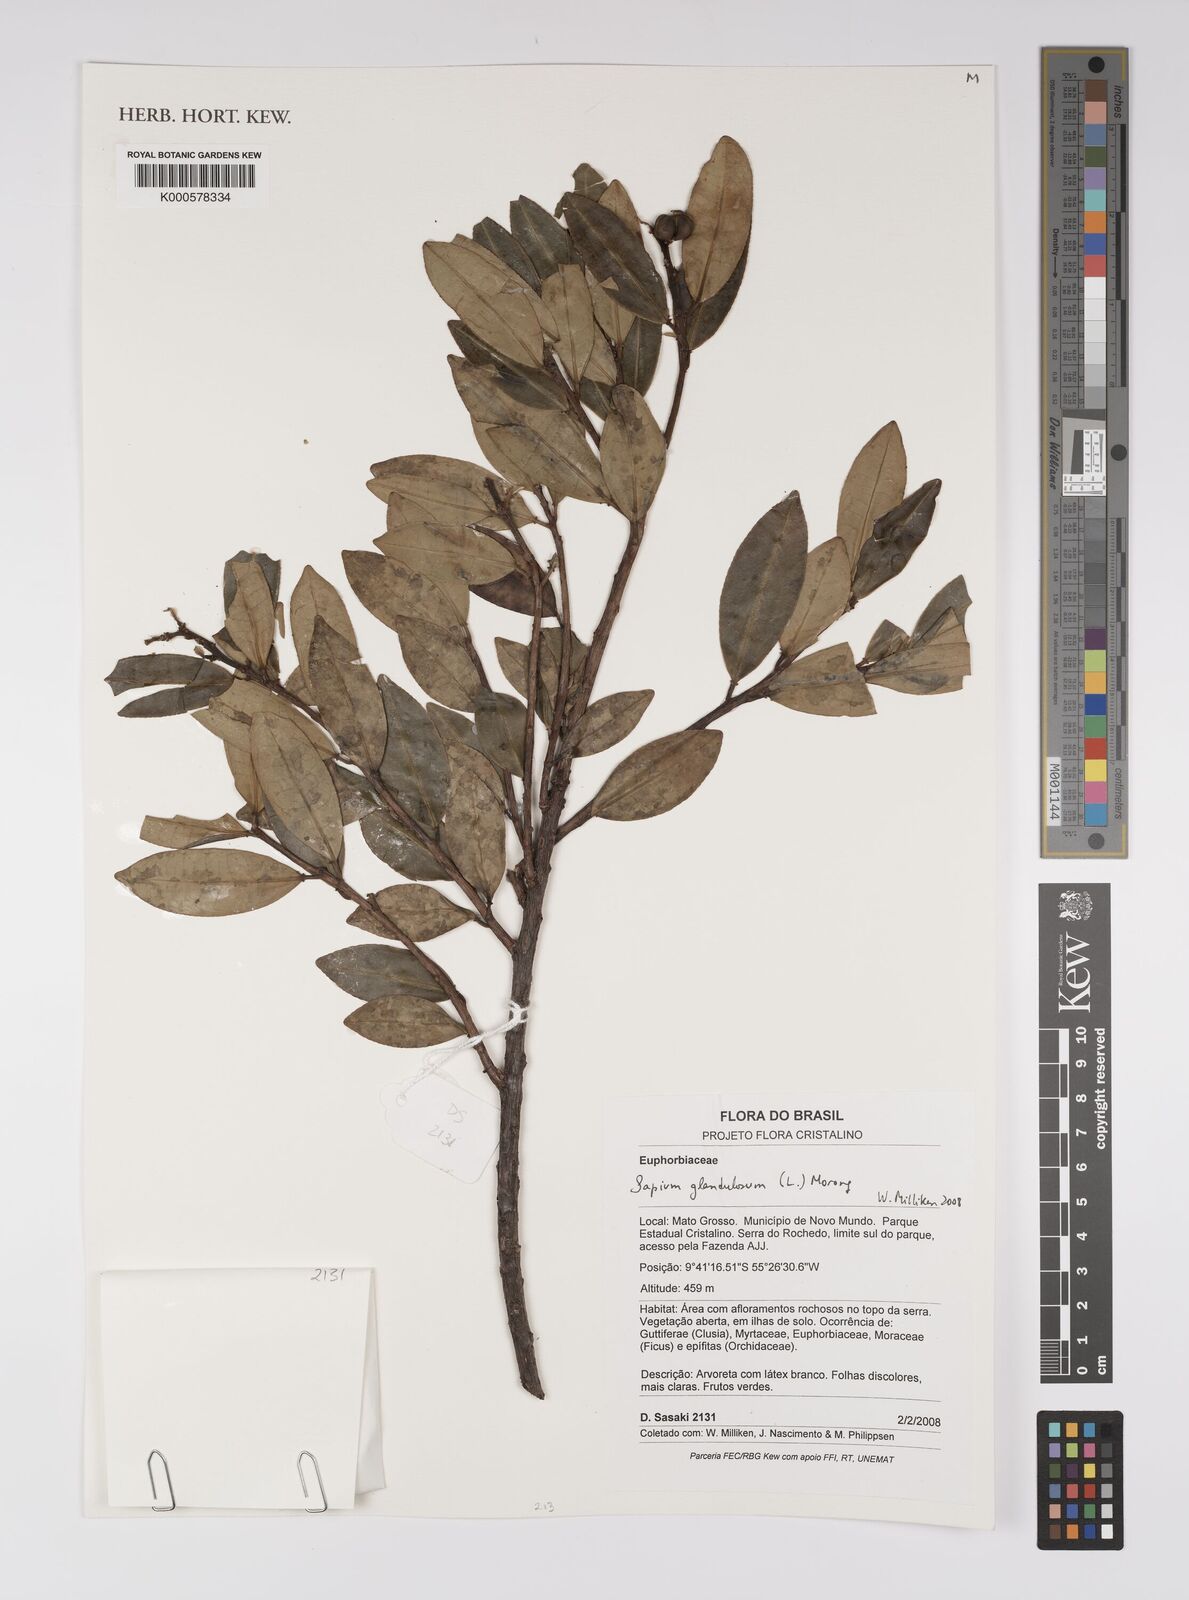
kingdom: Plantae
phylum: Tracheophyta
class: Magnoliopsida
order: Malpighiales
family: Euphorbiaceae
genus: Sapium
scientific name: Sapium glandulosum
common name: Milktree
